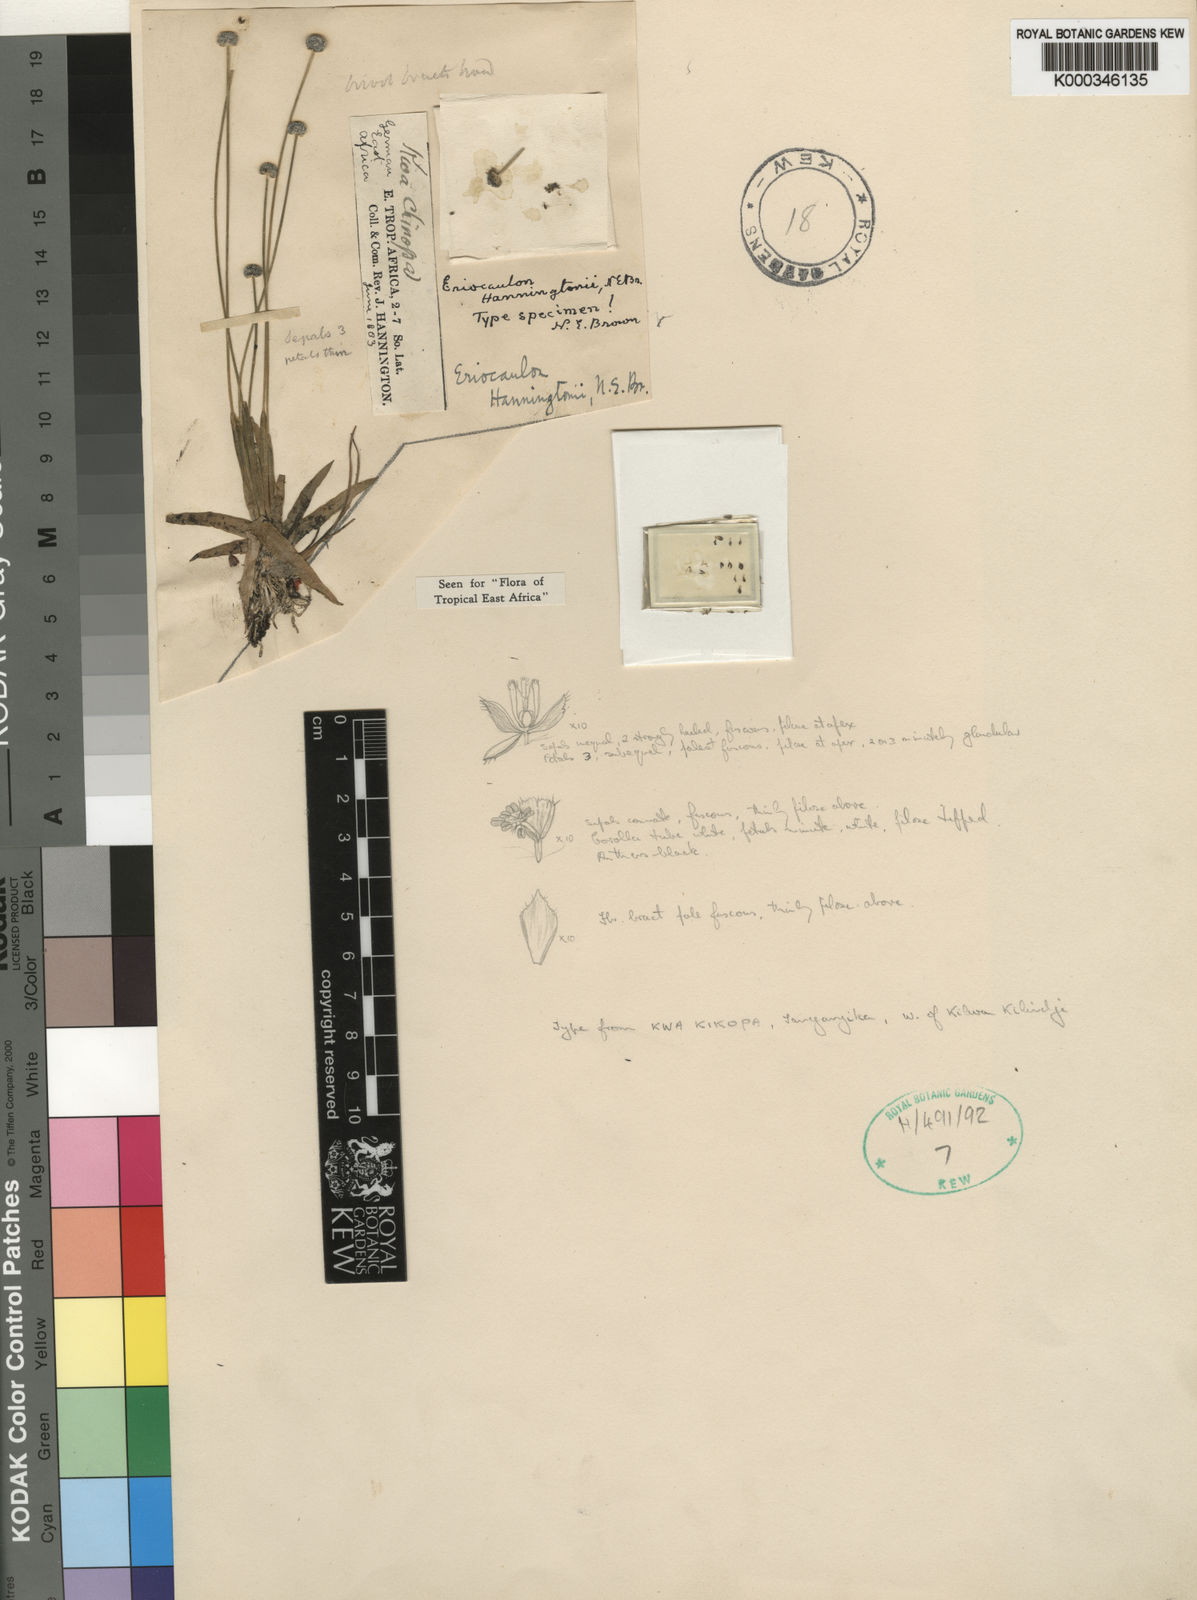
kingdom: Plantae
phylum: Tracheophyta
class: Liliopsida
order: Poales
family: Eriocaulaceae
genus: Eriocaulon
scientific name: Eriocaulon transvaalicum
